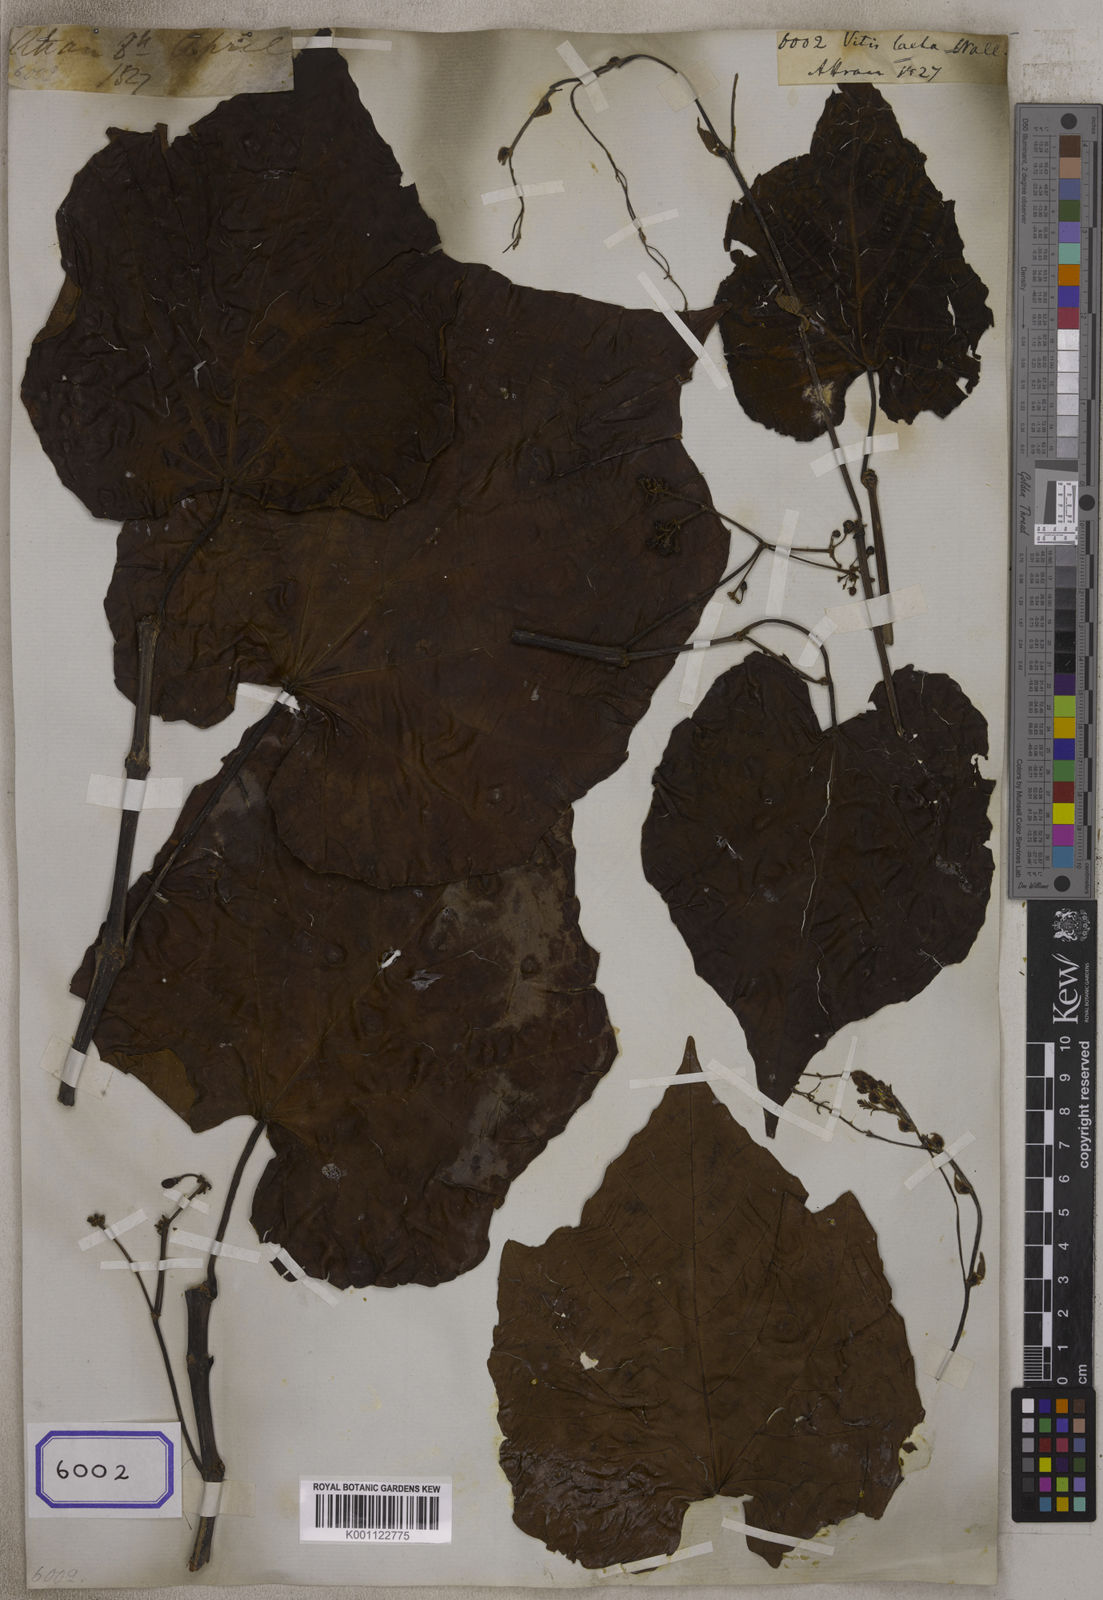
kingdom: Plantae
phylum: Tracheophyta
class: Magnoliopsida
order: Vitales
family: Vitaceae
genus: Cissus
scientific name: Cissus repanda
